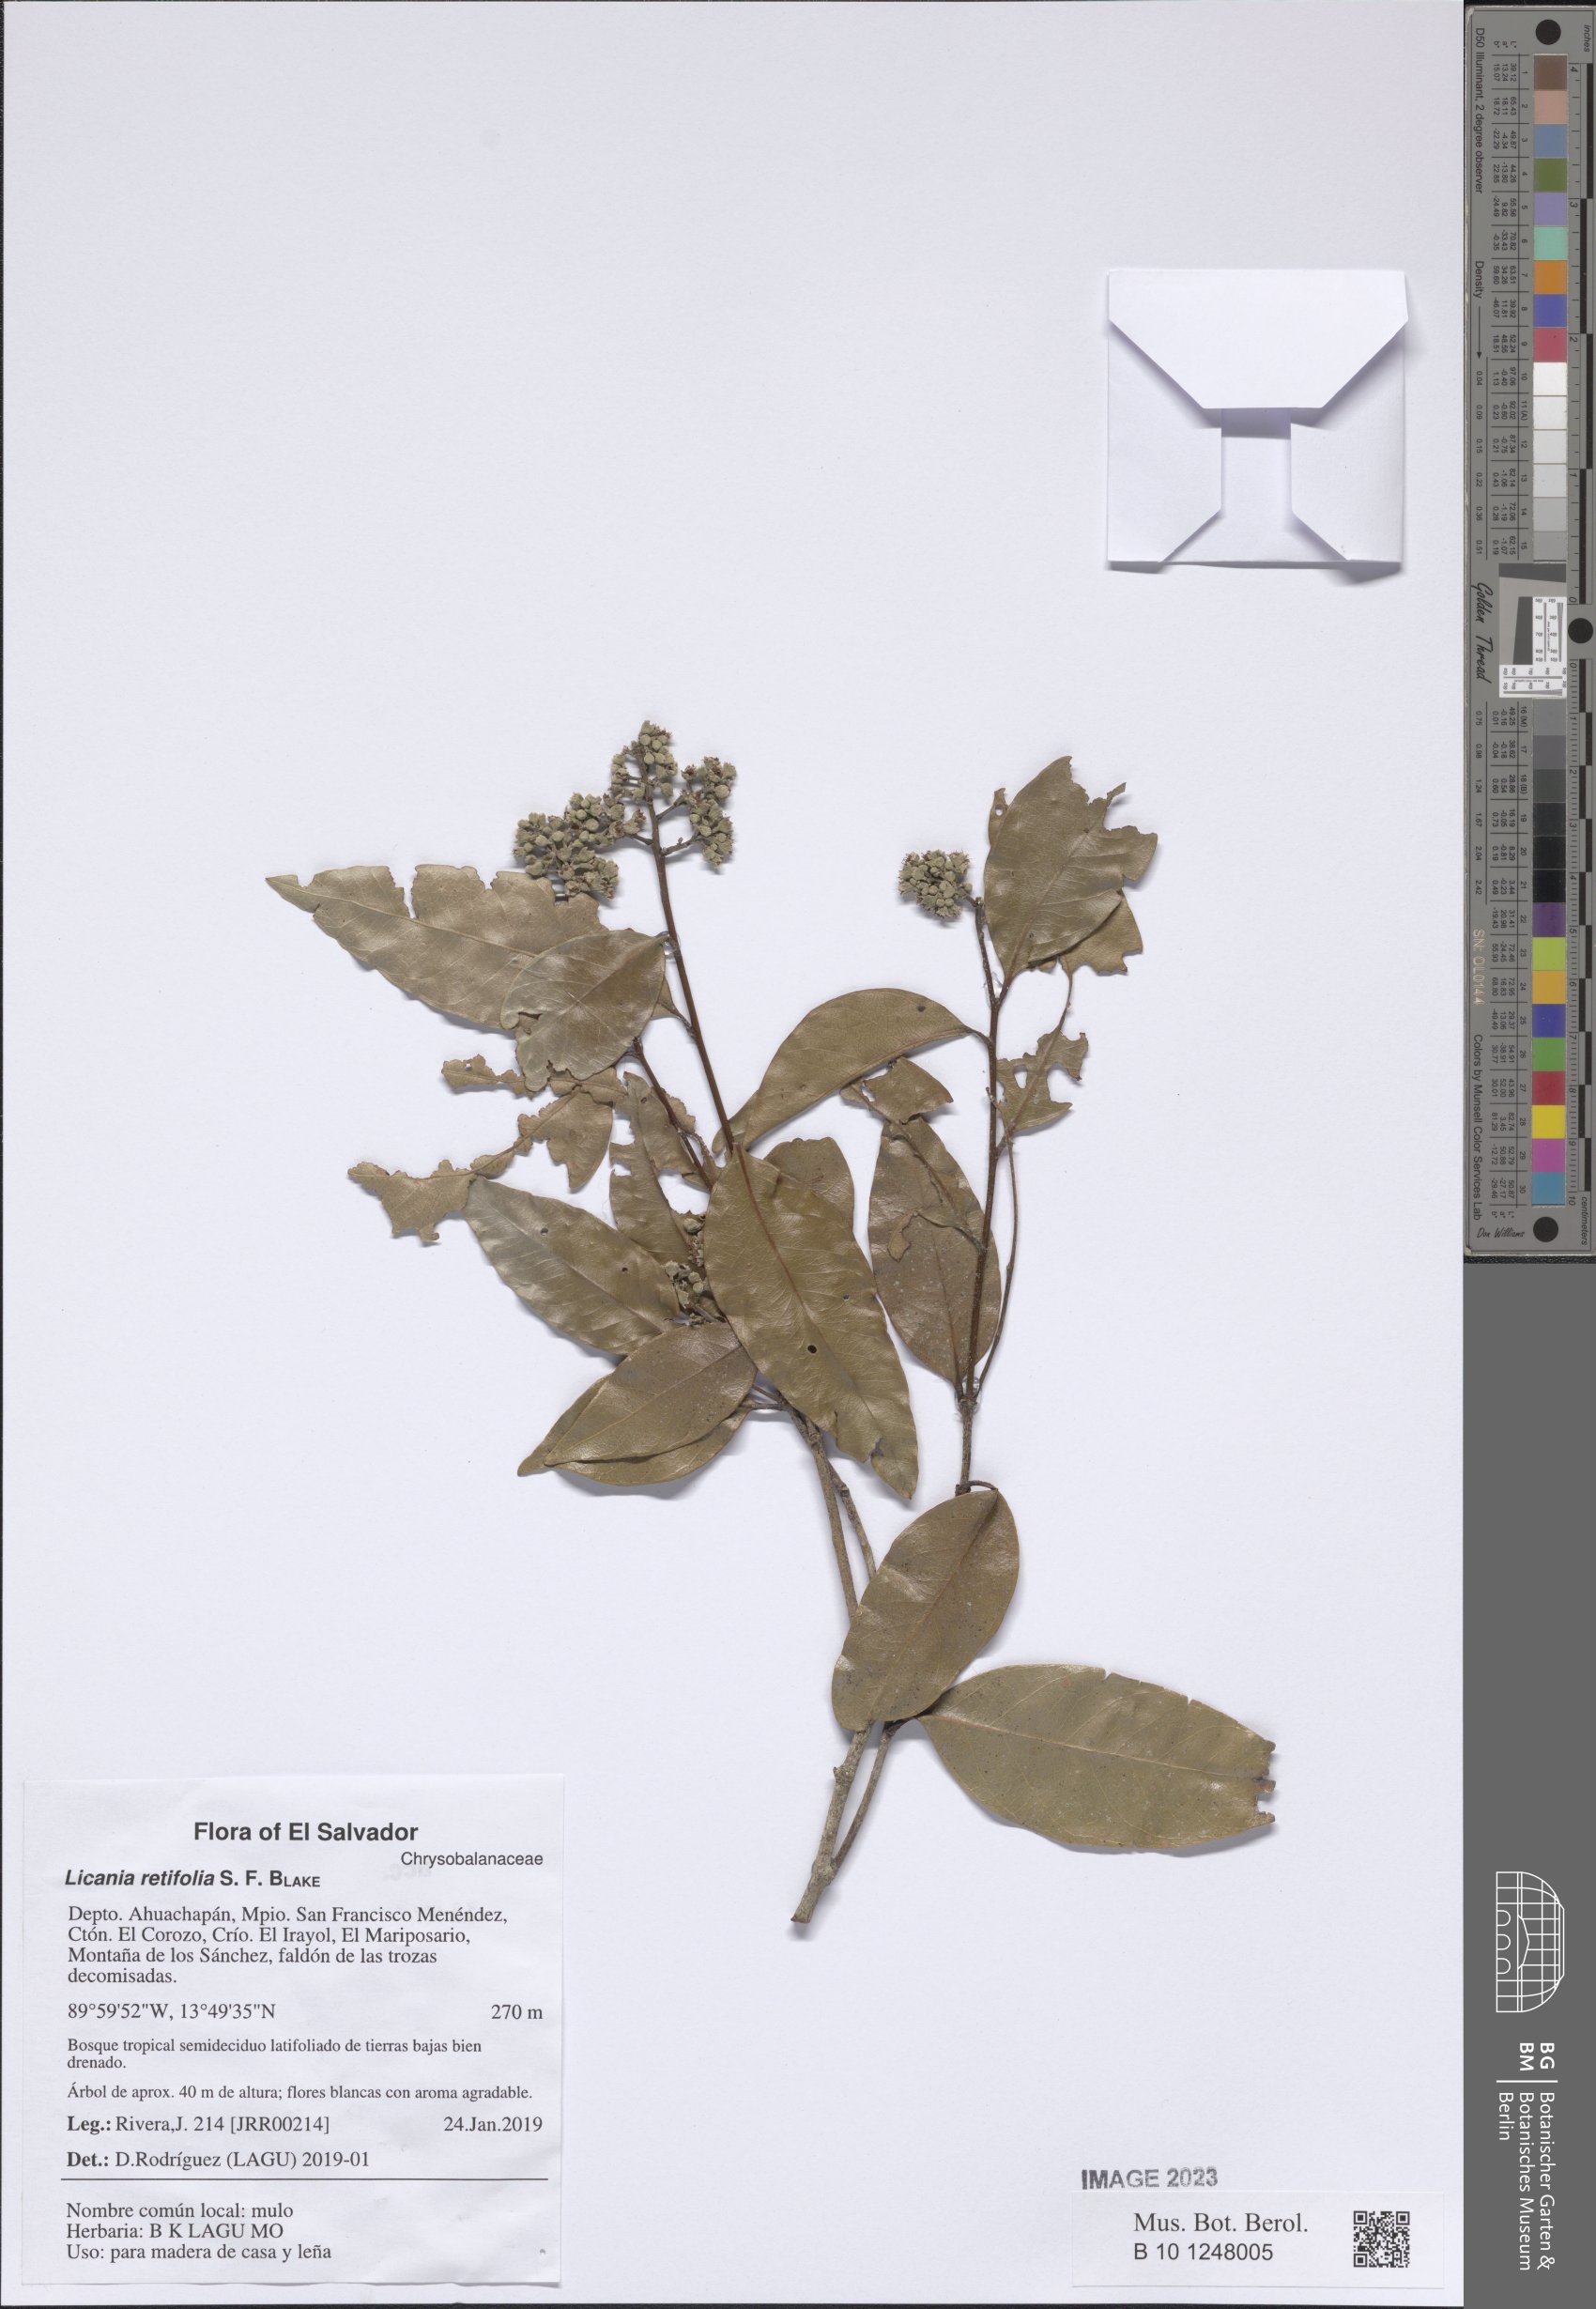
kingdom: Plantae
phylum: Tracheophyta
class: Magnoliopsida
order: Malpighiales
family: Chrysobalanaceae
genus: Geobalanus
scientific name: Geobalanus retifolius
